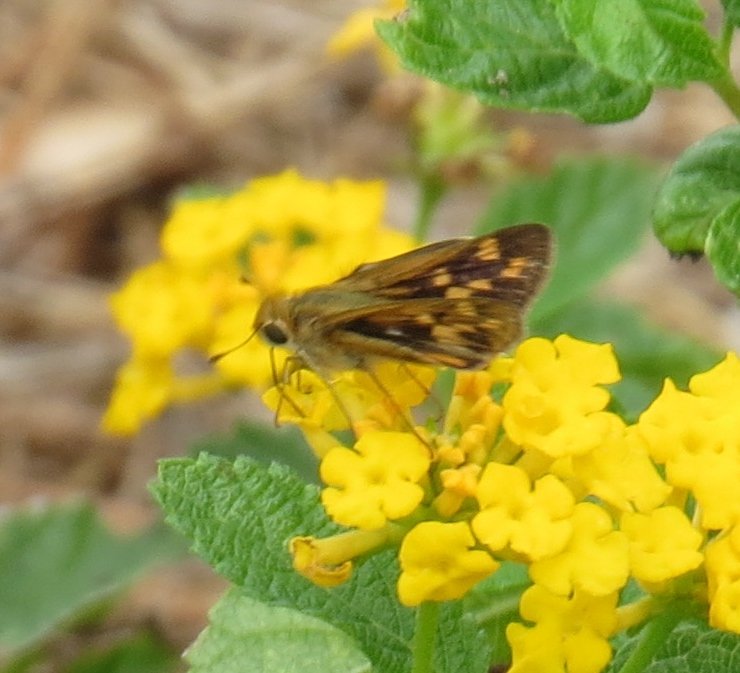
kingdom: Animalia
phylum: Arthropoda
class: Insecta
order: Lepidoptera
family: Hesperiidae
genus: Hylephila
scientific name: Hylephila phyleus
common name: Fiery Skipper
